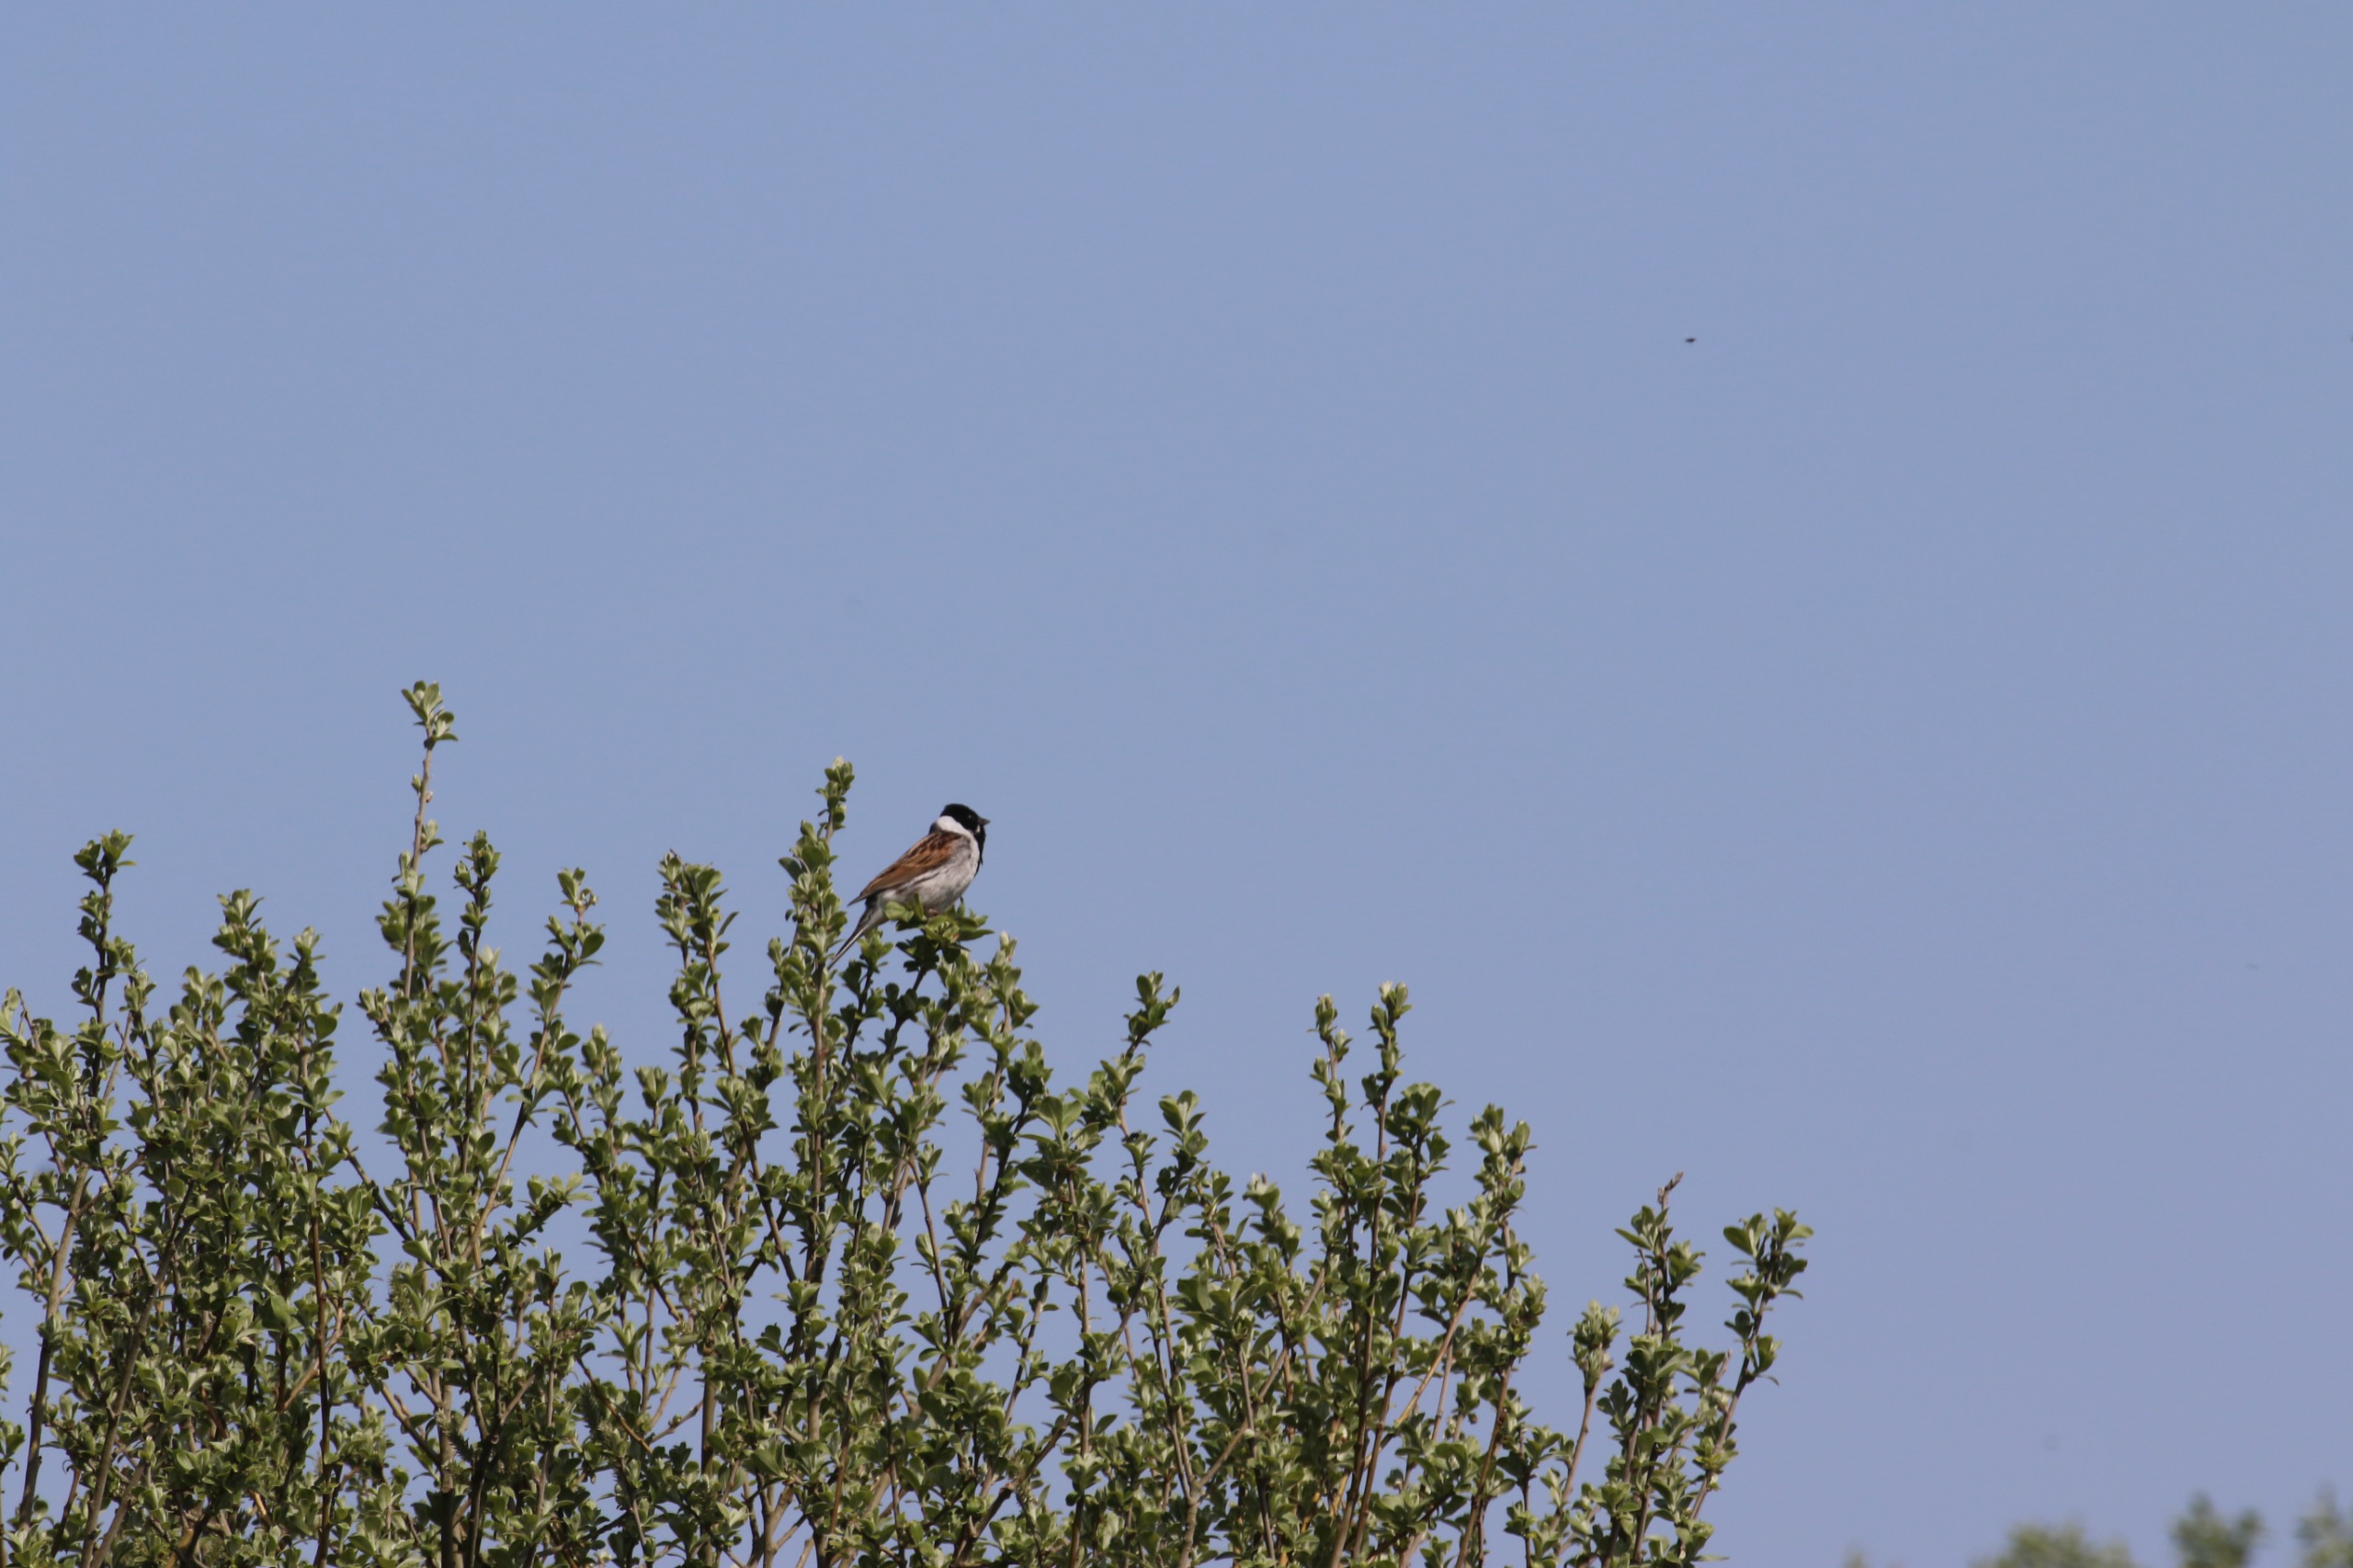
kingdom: Animalia
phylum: Chordata
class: Aves
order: Passeriformes
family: Emberizidae
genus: Emberiza
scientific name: Emberiza schoeniclus
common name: Rørspurv
